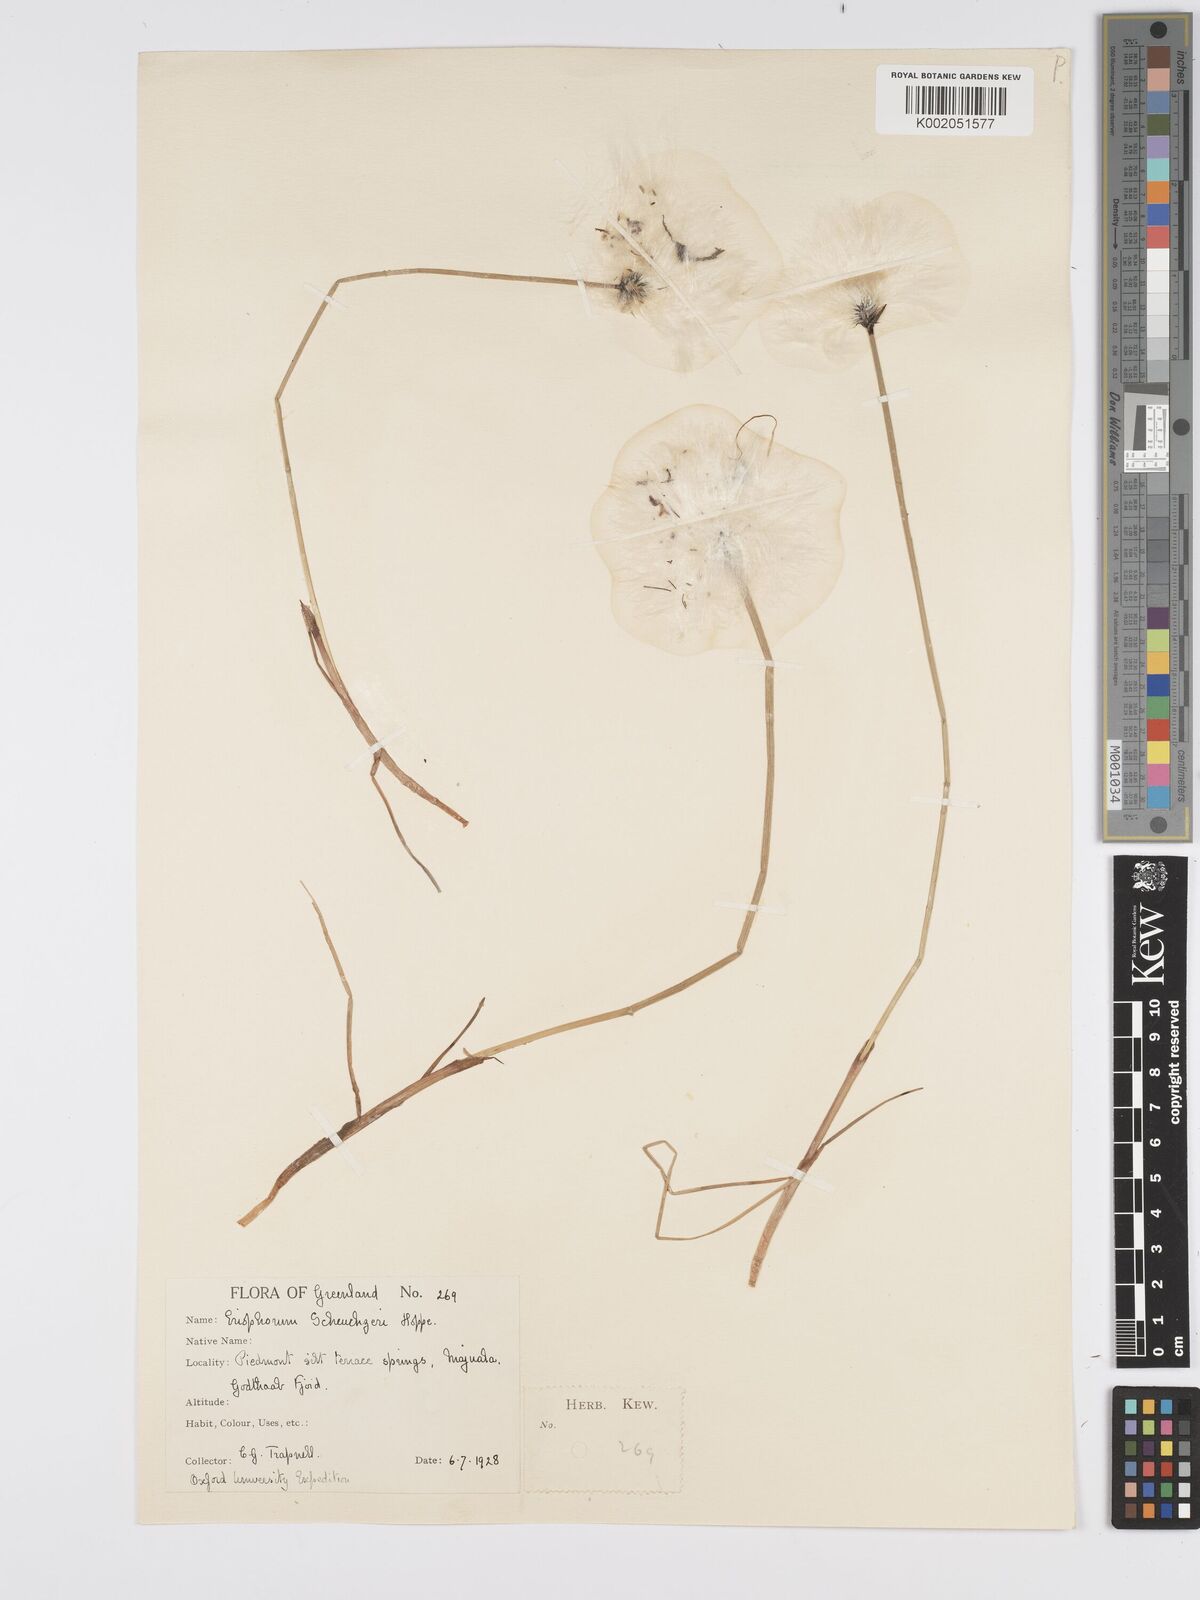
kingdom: Plantae
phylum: Tracheophyta
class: Liliopsida
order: Poales
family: Cyperaceae
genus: Eriophorum
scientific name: Eriophorum scheuchzeri
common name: Scheuchzer's cottongrass
